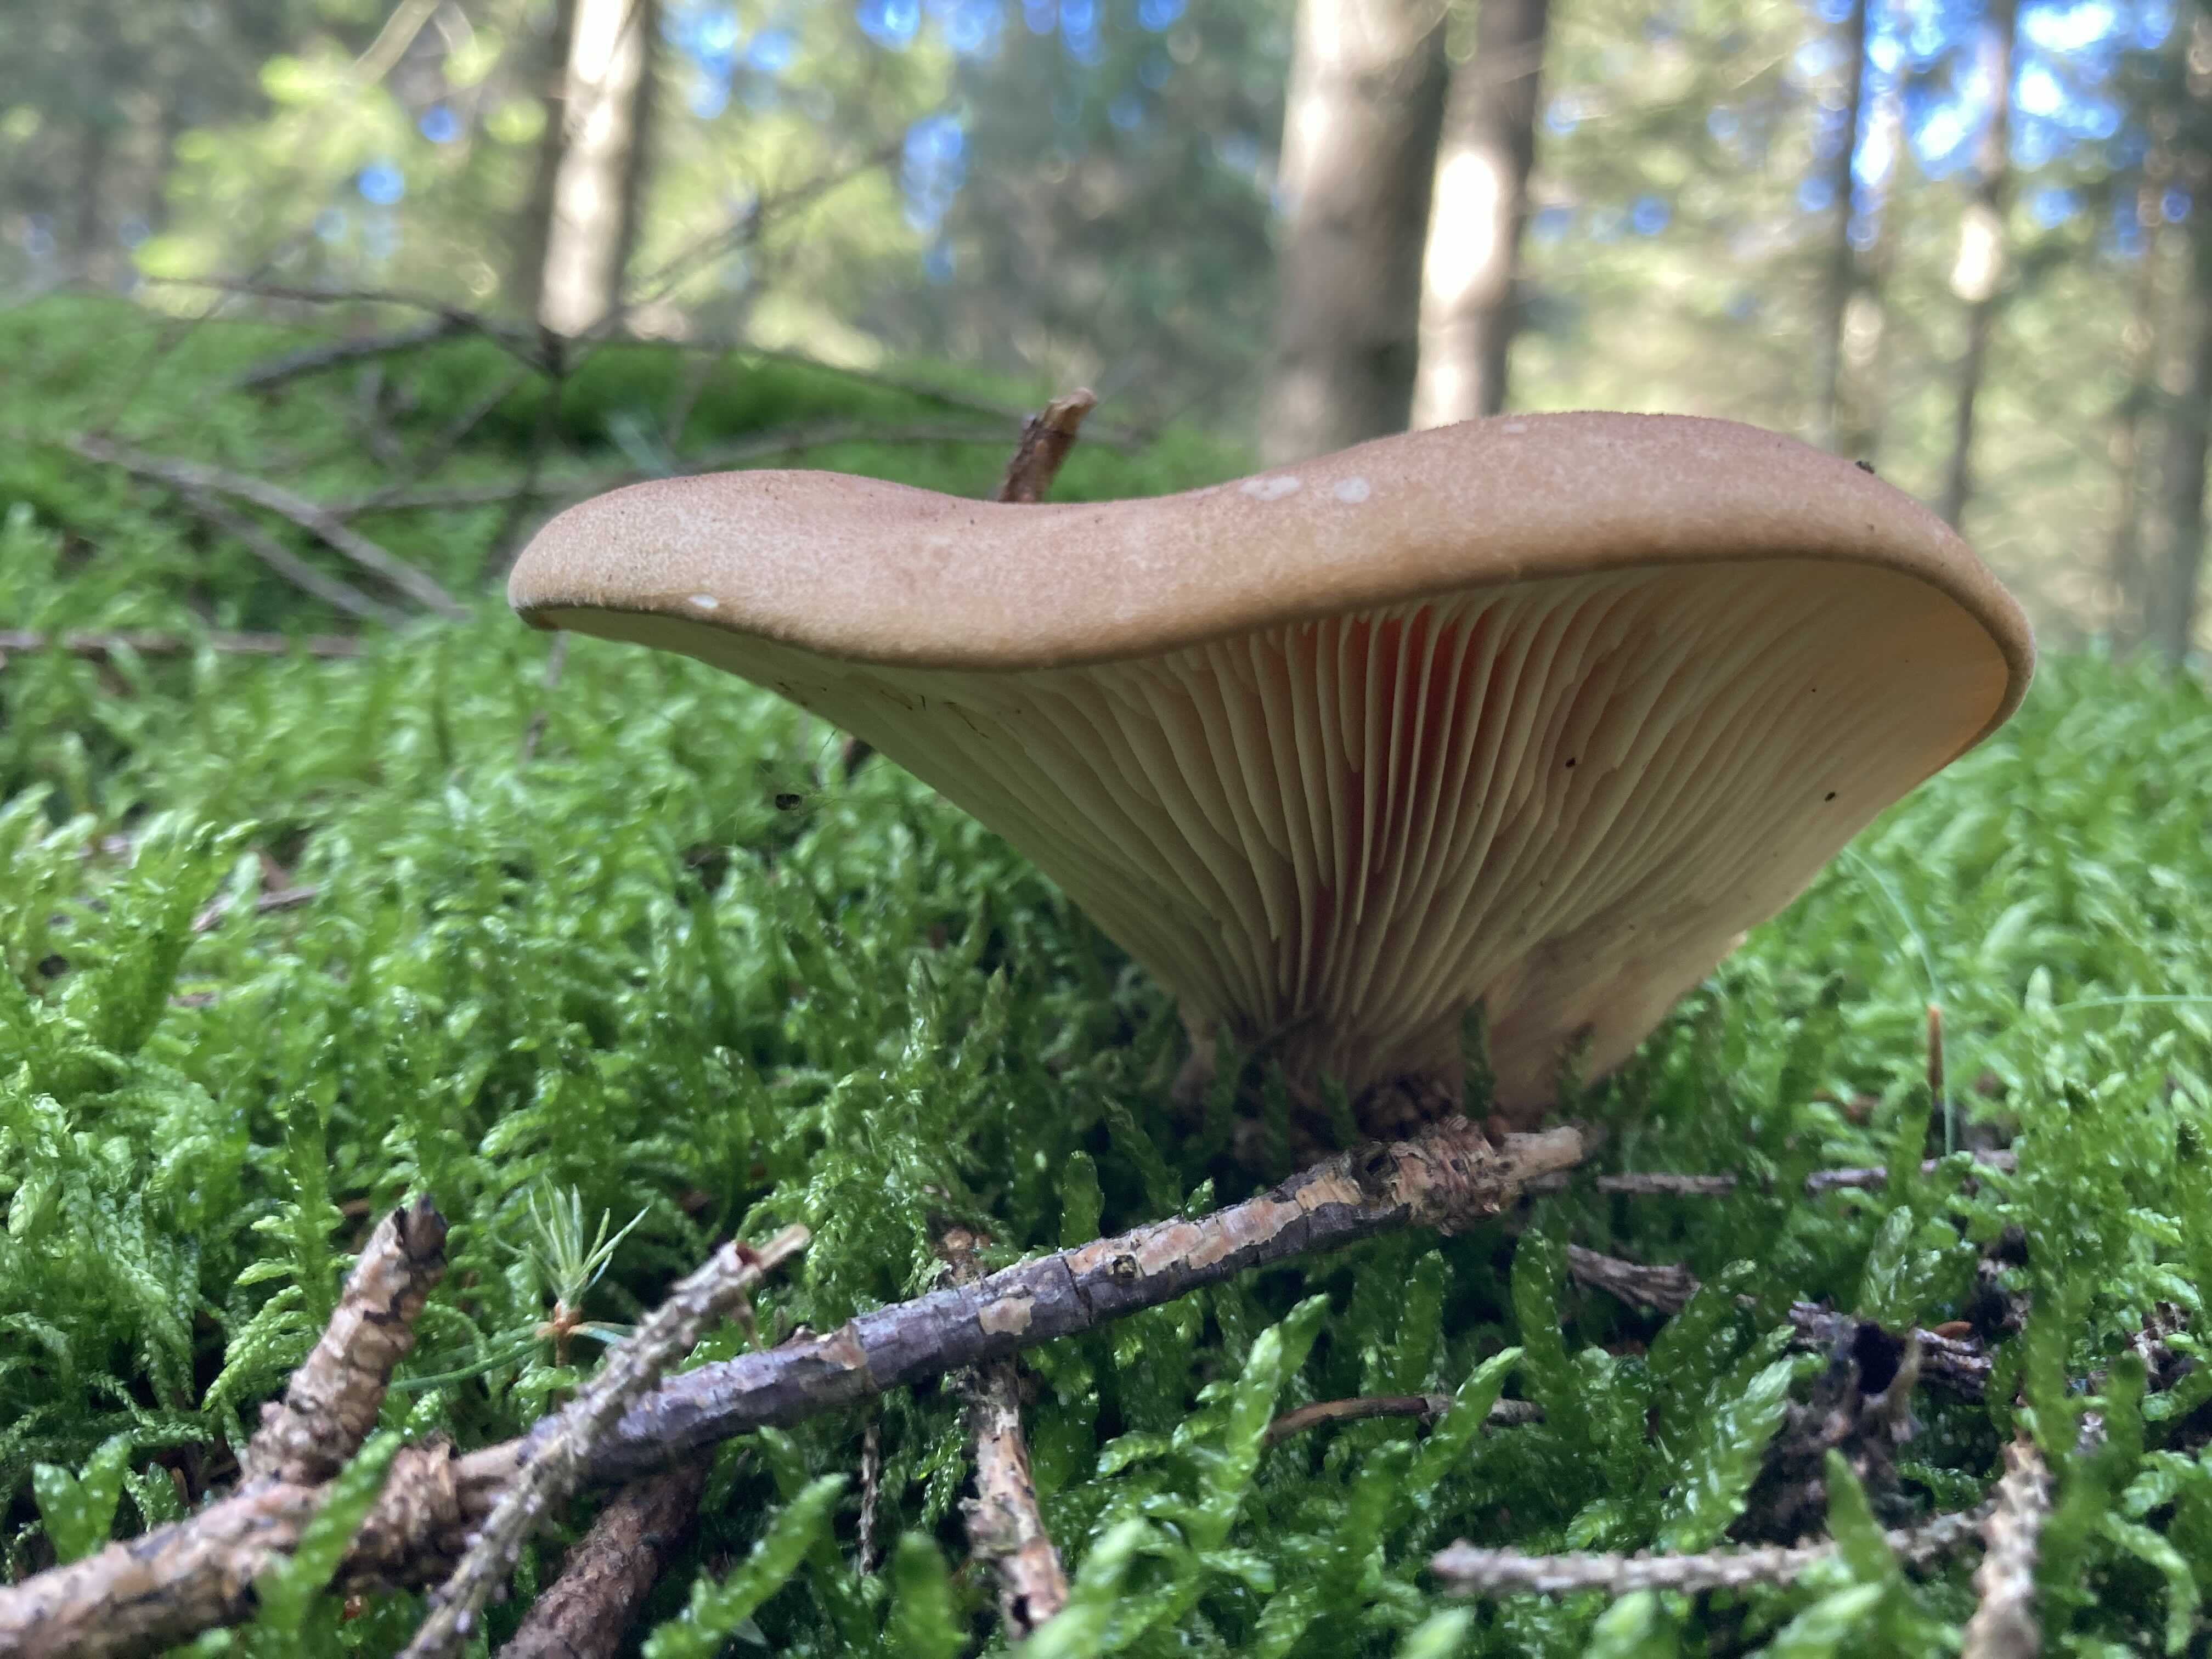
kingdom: Fungi
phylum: Basidiomycota
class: Agaricomycetes
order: Boletales
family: Tapinellaceae
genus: Tapinella
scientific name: Tapinella atrotomentosa
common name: sortfiltet viftesvamp
